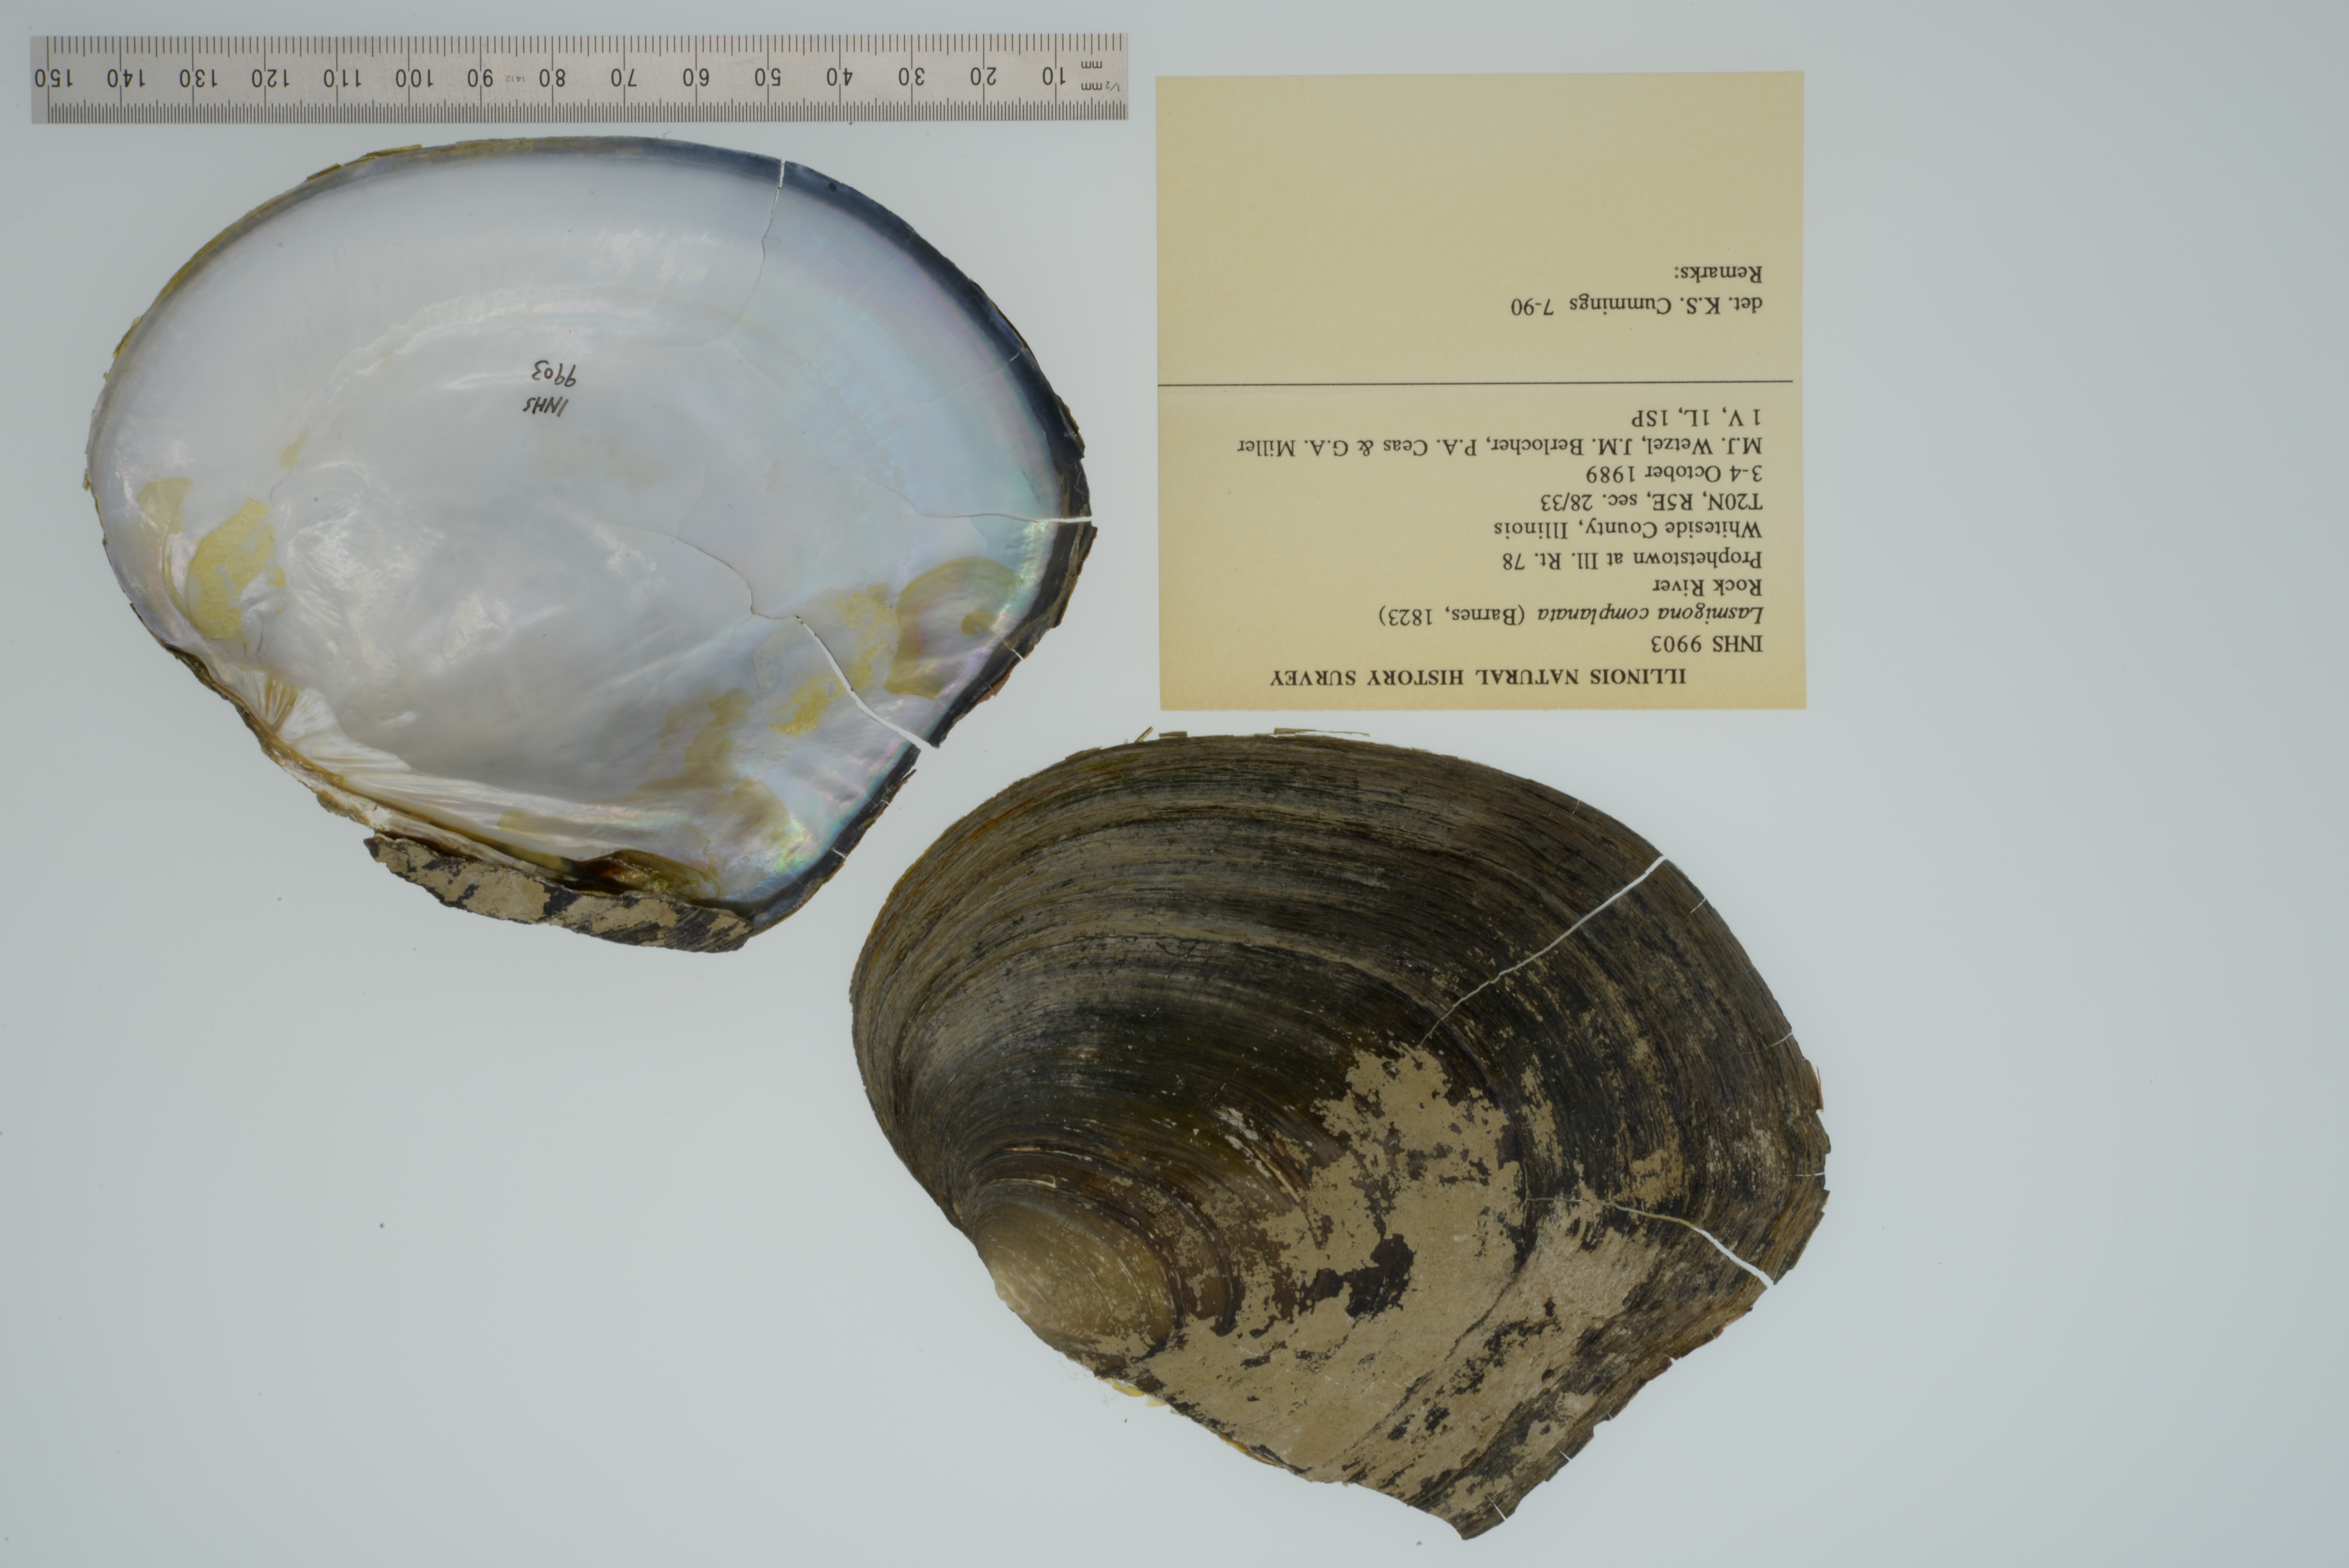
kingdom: Animalia
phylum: Mollusca
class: Bivalvia
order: Unionida
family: Unionidae
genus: Lasmigona
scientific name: Lasmigona complanata
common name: White heelsplitter
